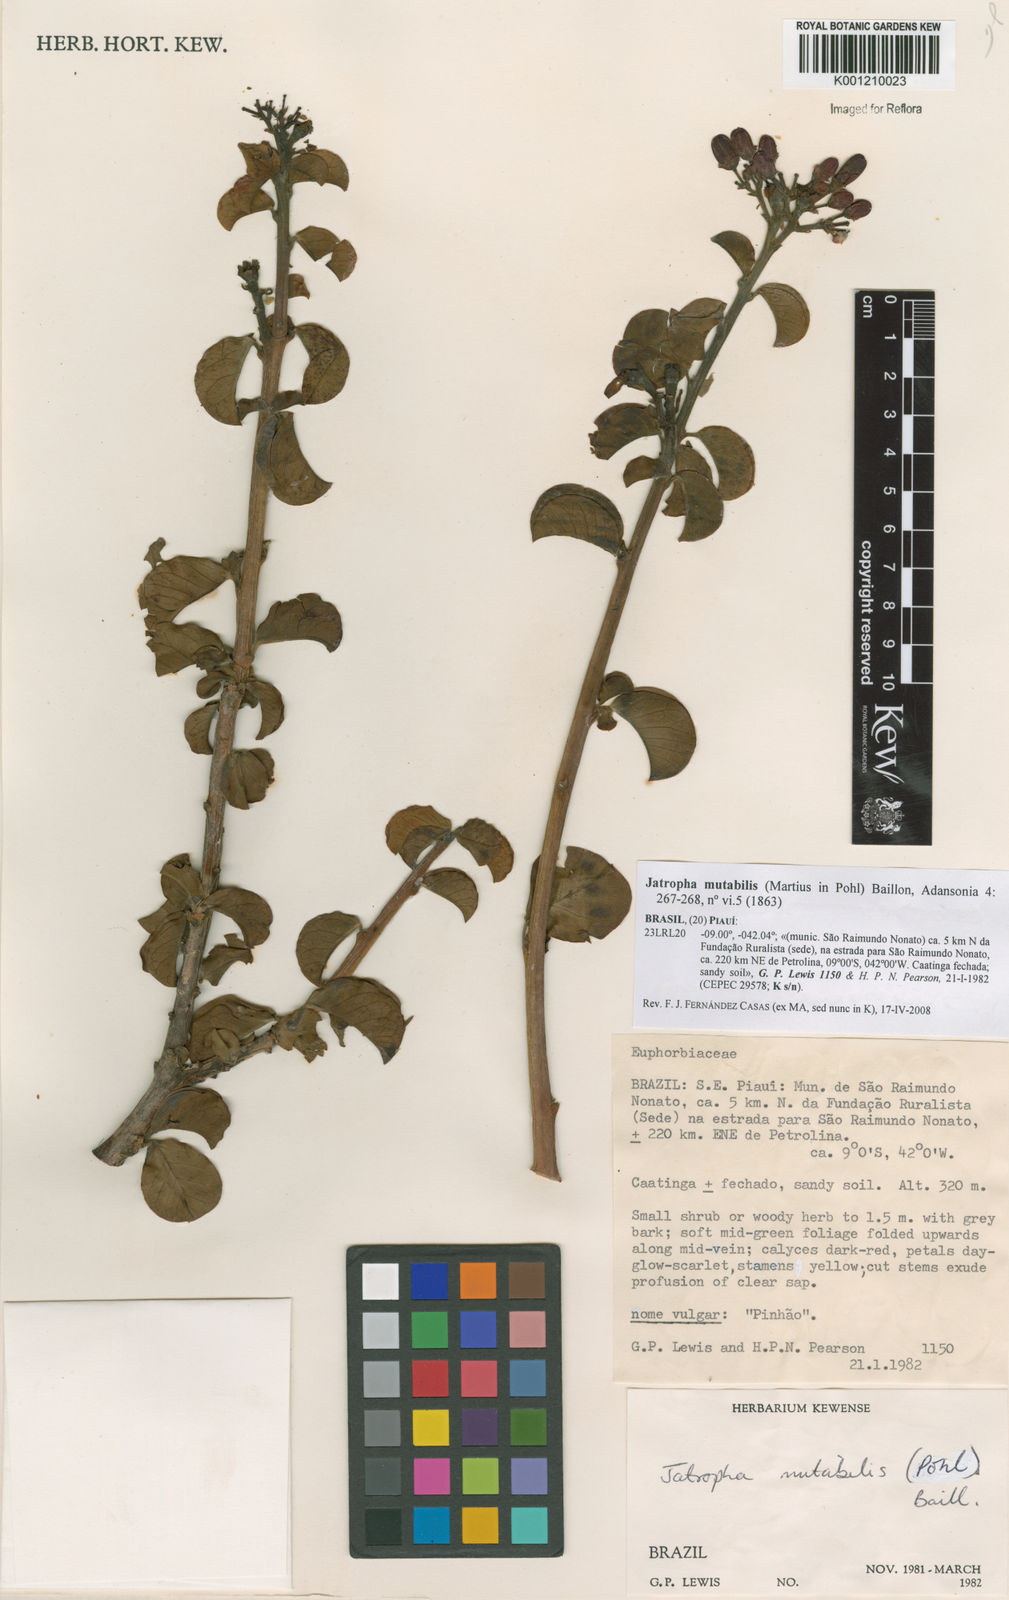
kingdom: Plantae
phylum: Tracheophyta
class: Magnoliopsida
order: Malpighiales
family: Euphorbiaceae
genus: Jatropha
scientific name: Jatropha mutabilis
